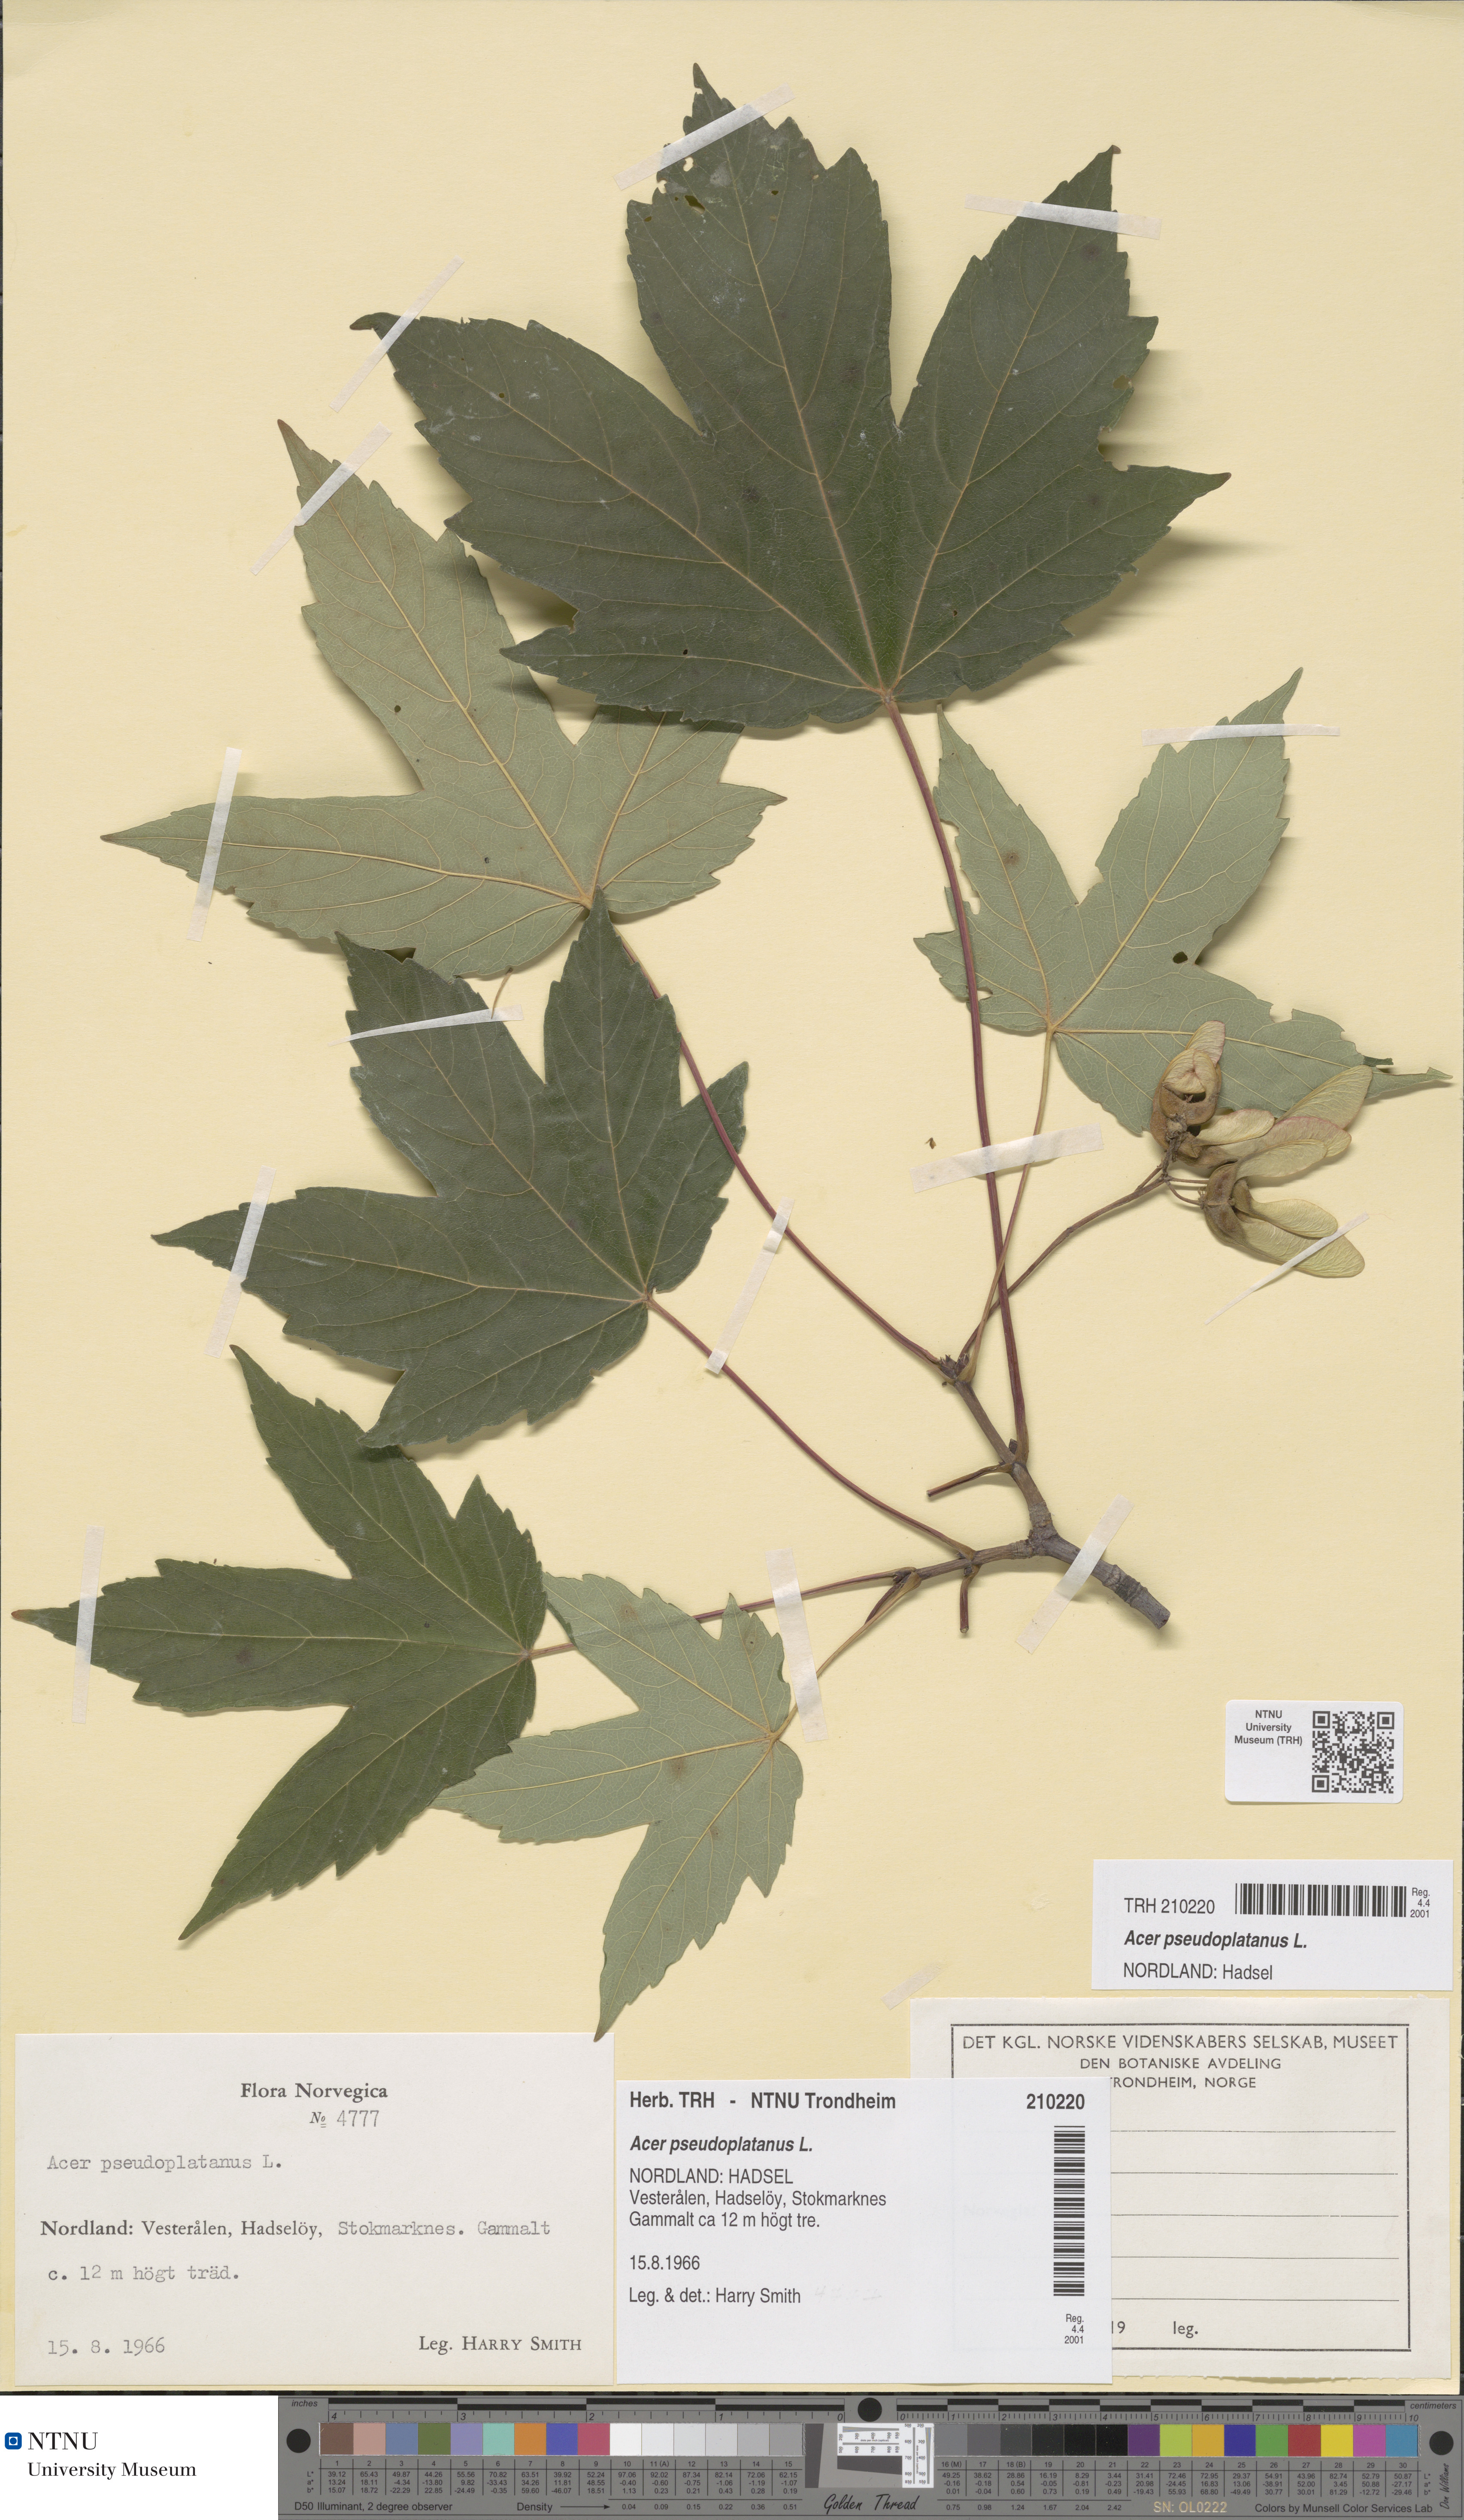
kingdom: Plantae
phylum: Tracheophyta
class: Magnoliopsida
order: Sapindales
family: Sapindaceae
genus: Acer
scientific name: Acer pseudoplatanus
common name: Sycamore
